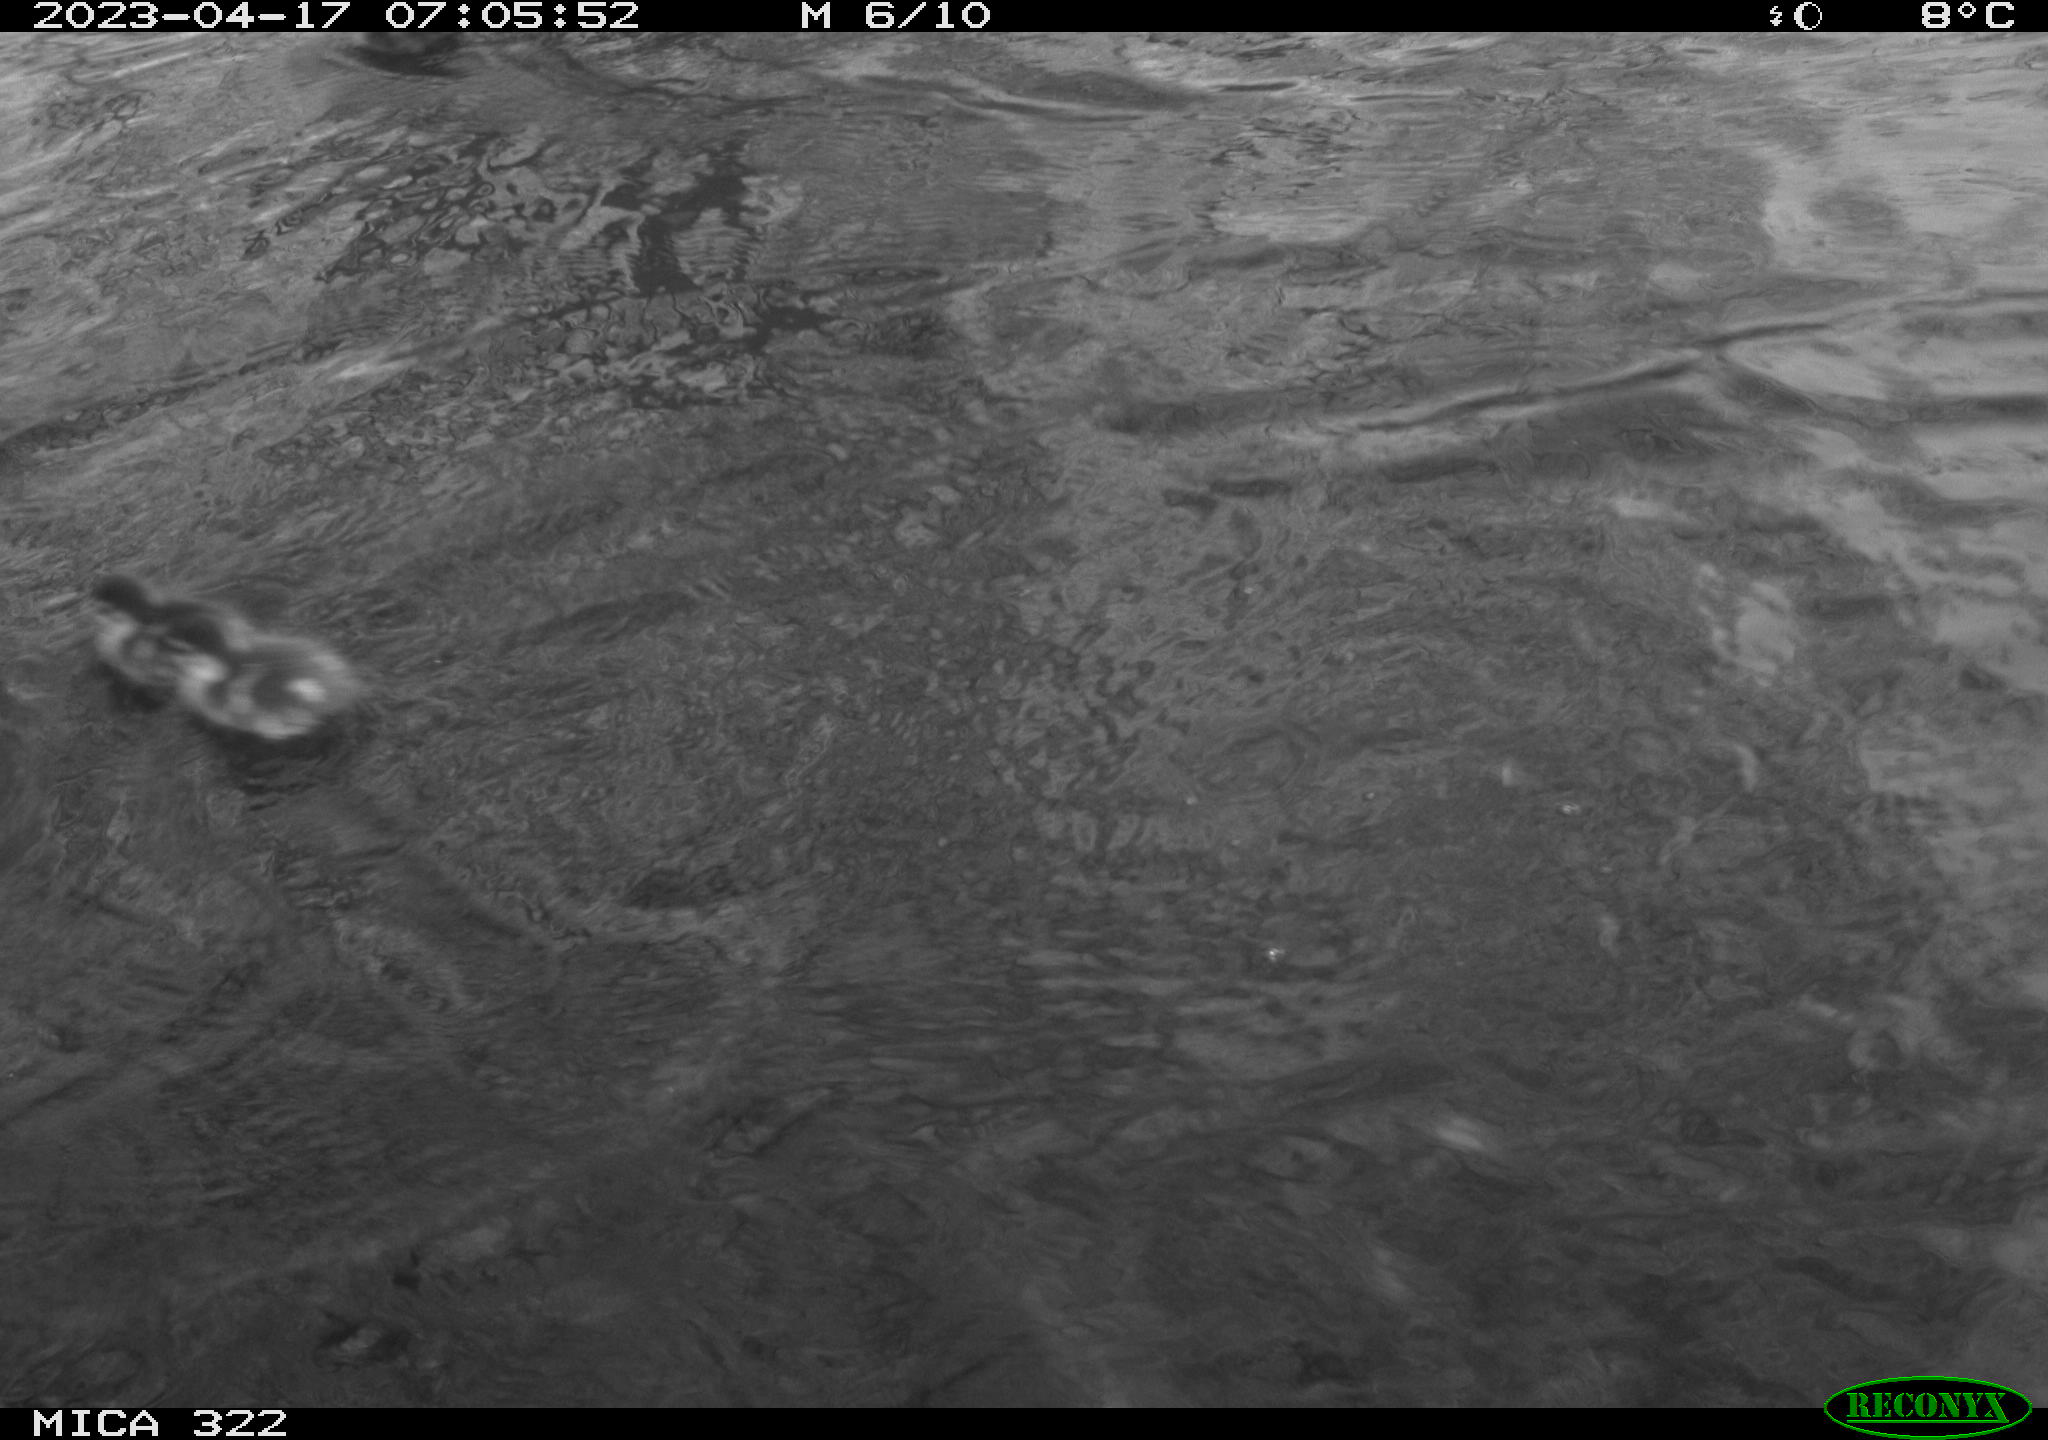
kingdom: Animalia
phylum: Chordata
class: Aves
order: Anseriformes
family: Anatidae
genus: Anas
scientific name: Anas
